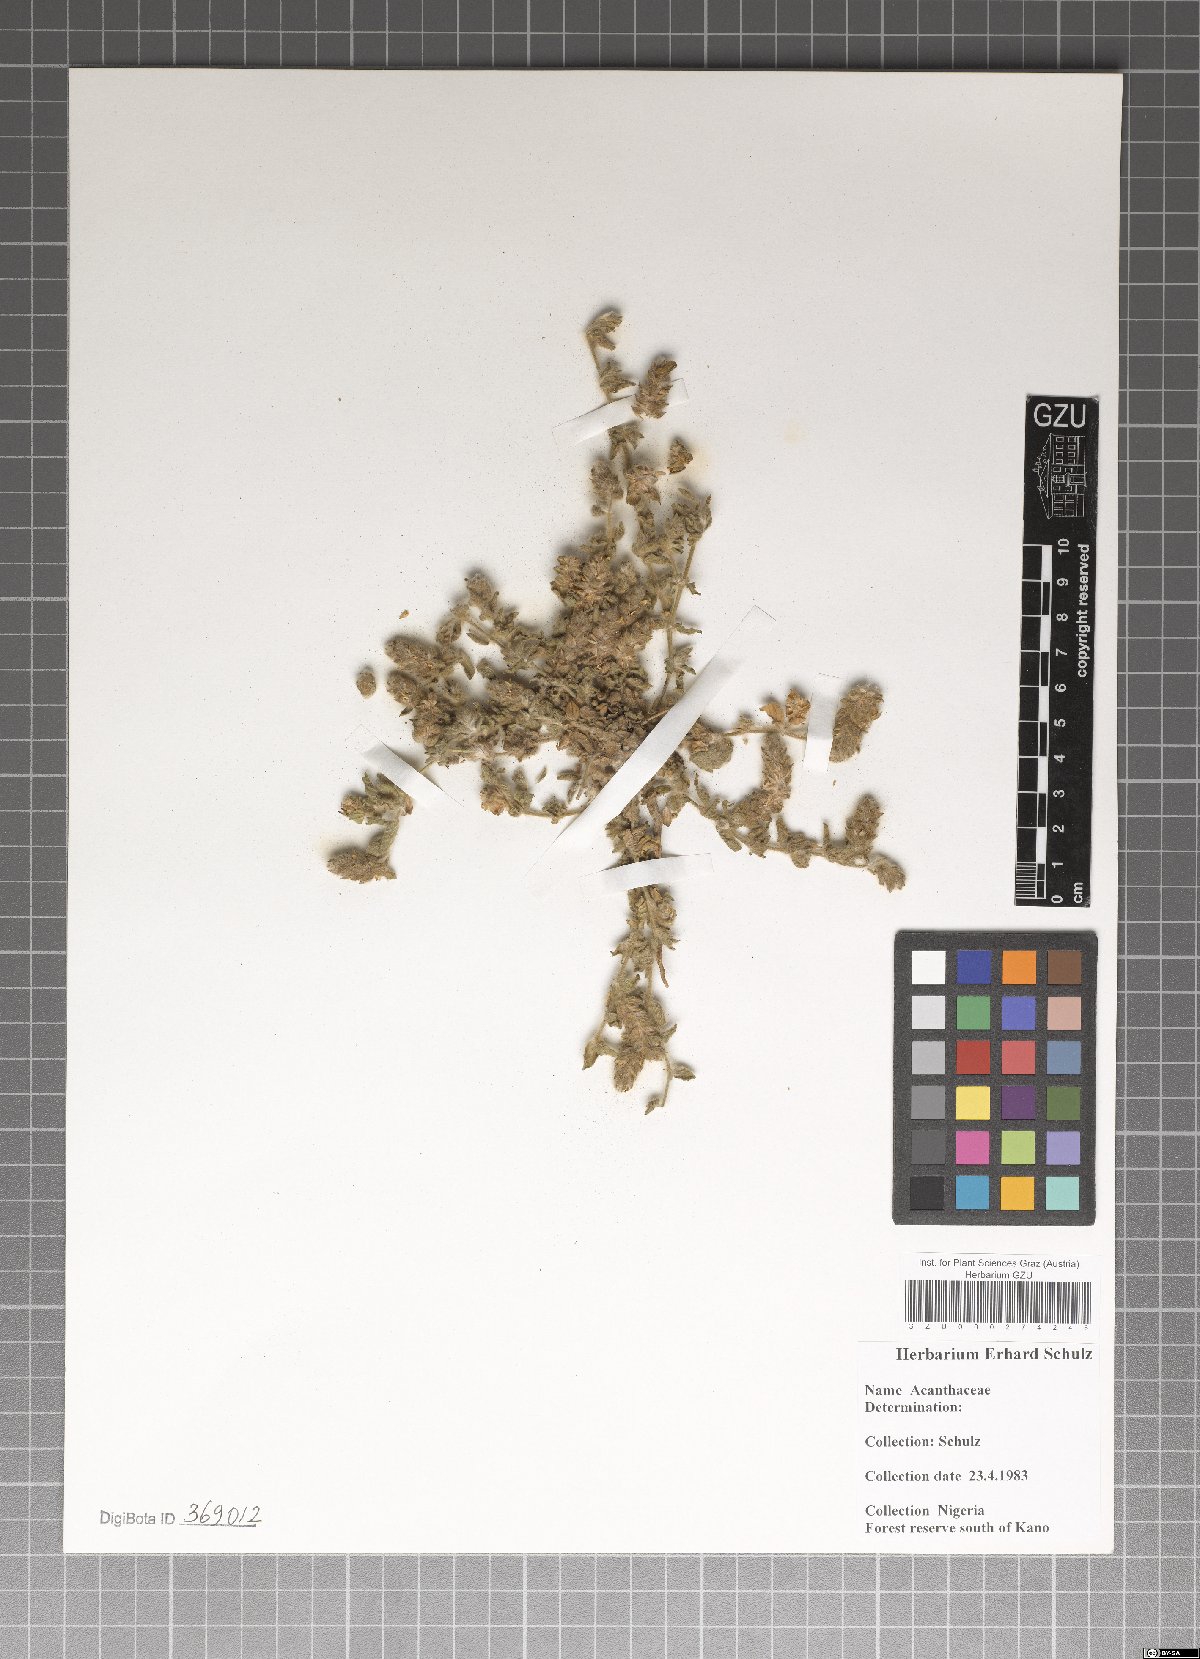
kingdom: Plantae
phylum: Tracheophyta
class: Magnoliopsida
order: Lamiales
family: Acanthaceae
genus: Nelsonia
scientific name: Nelsonia canescens
